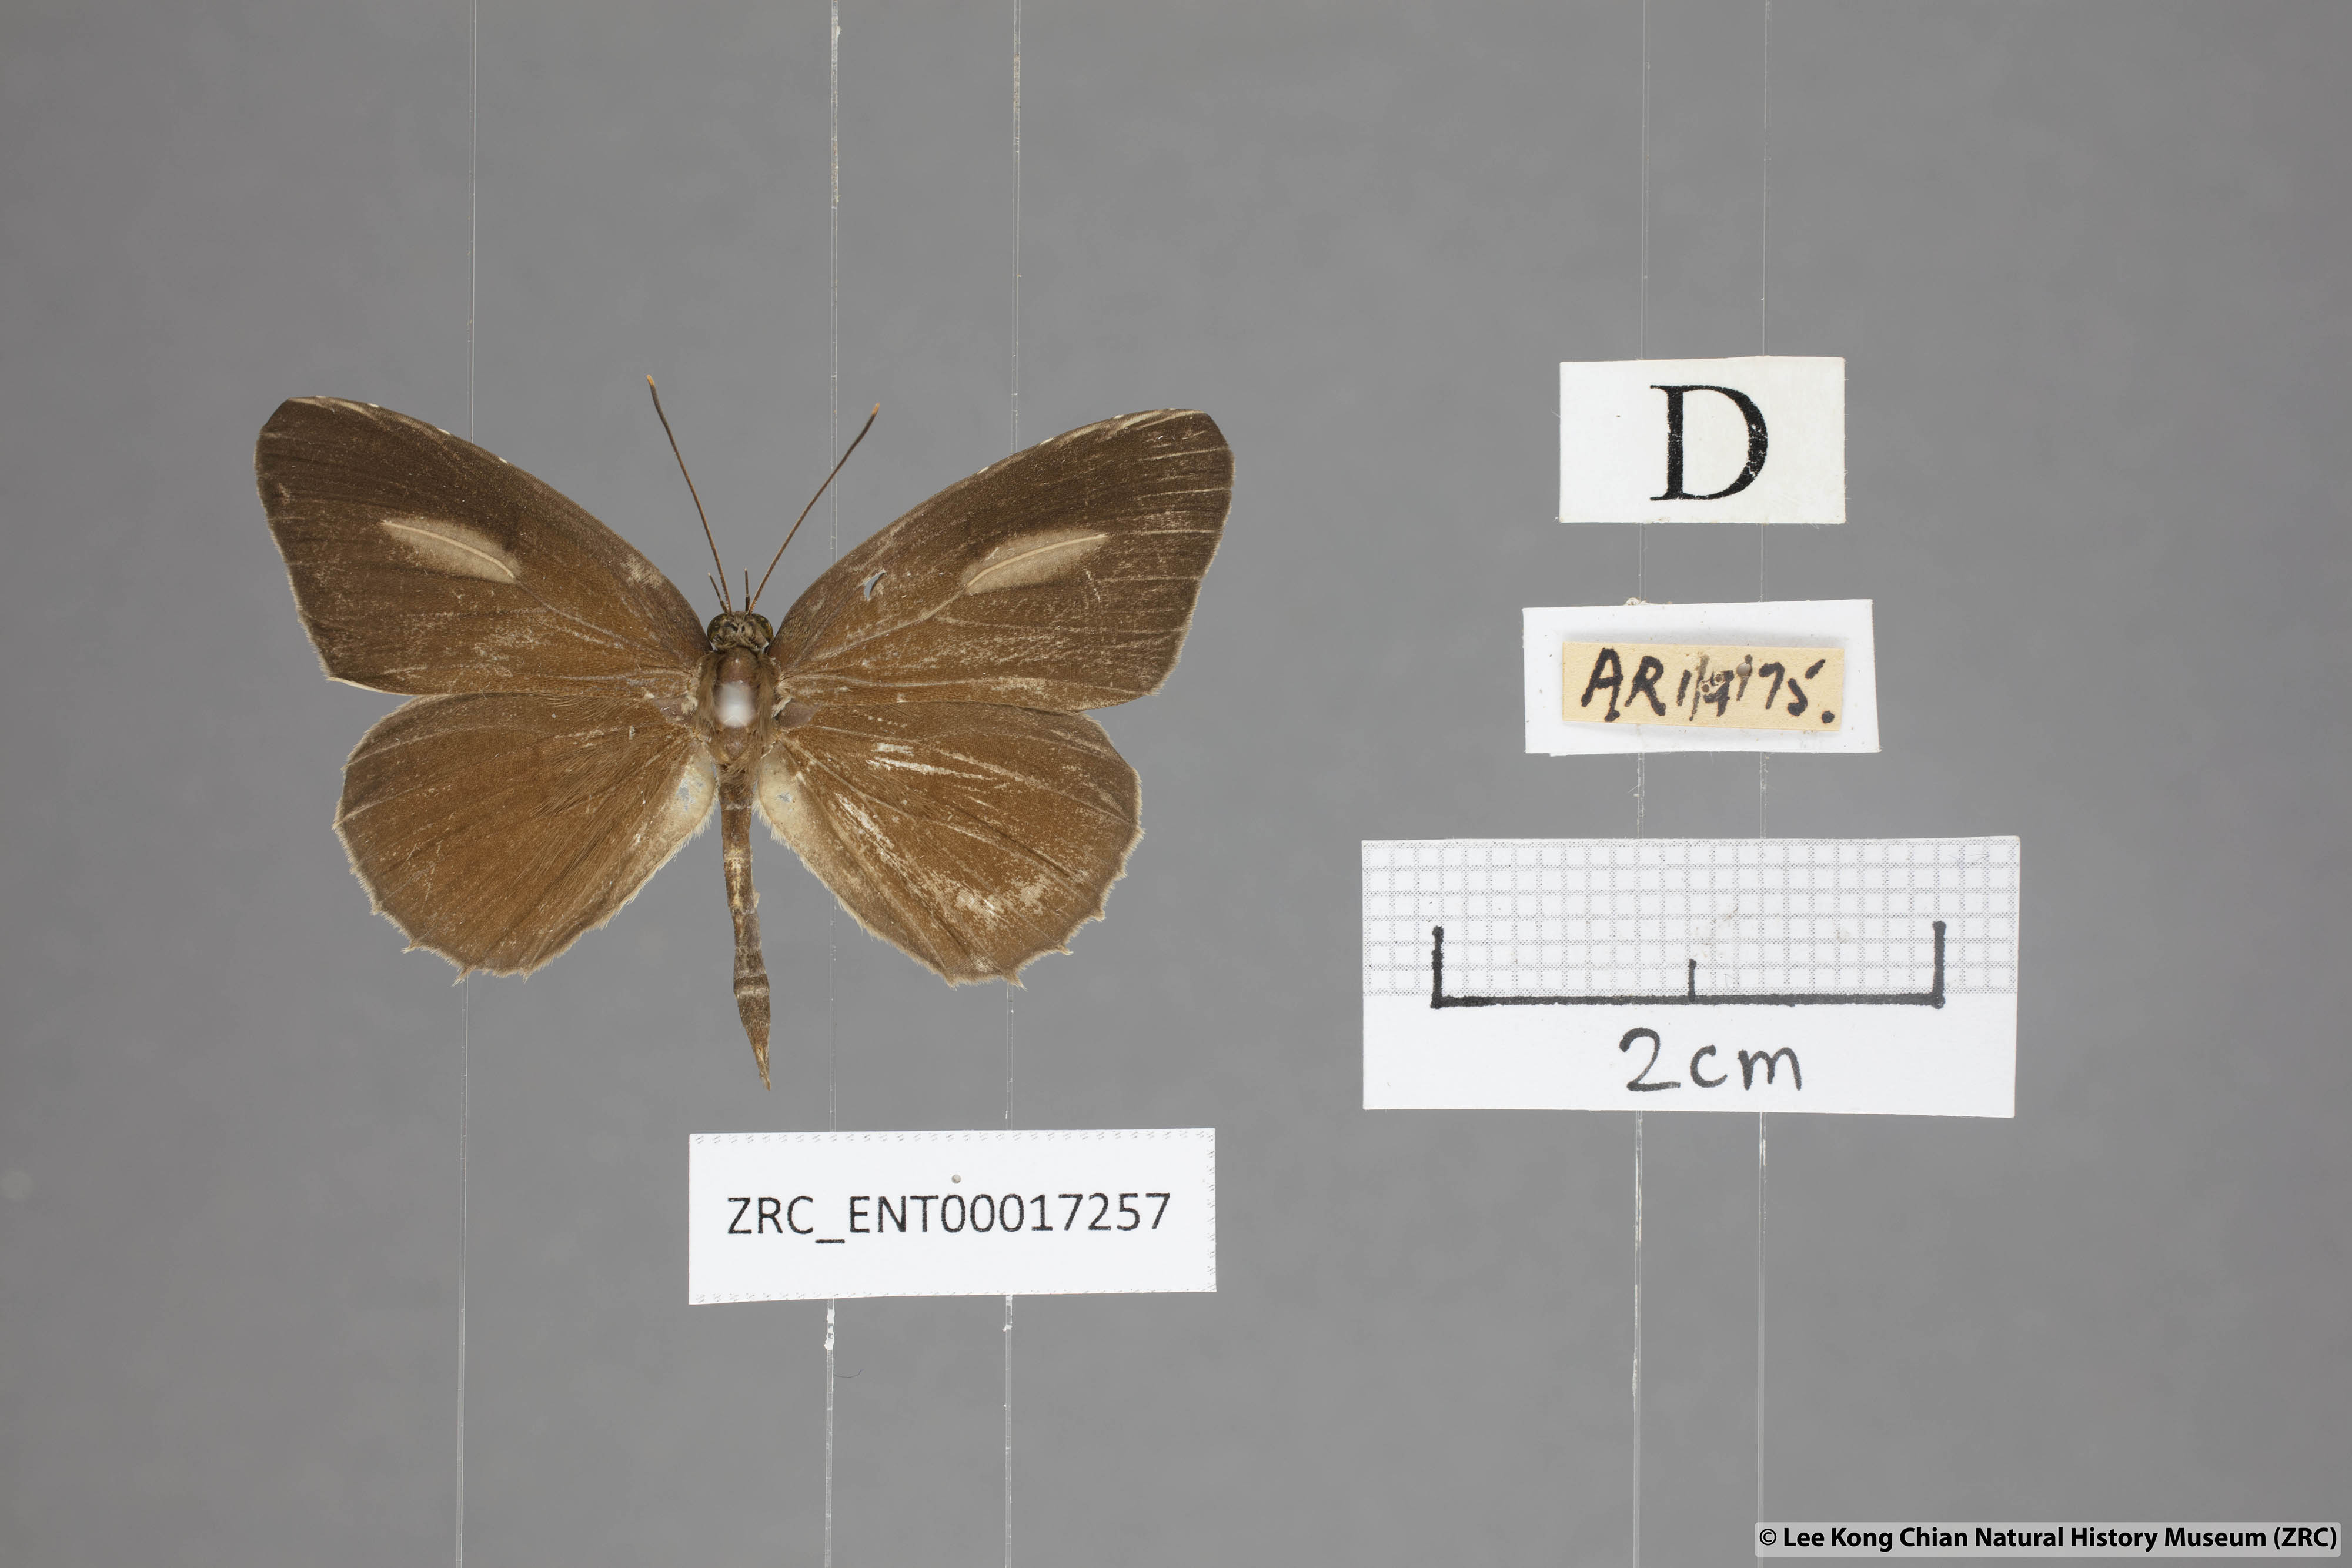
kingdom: Animalia
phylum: Arthropoda
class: Insecta
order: Lepidoptera
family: Lycaenidae
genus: Allotinus
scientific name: Allotinus leogoron
